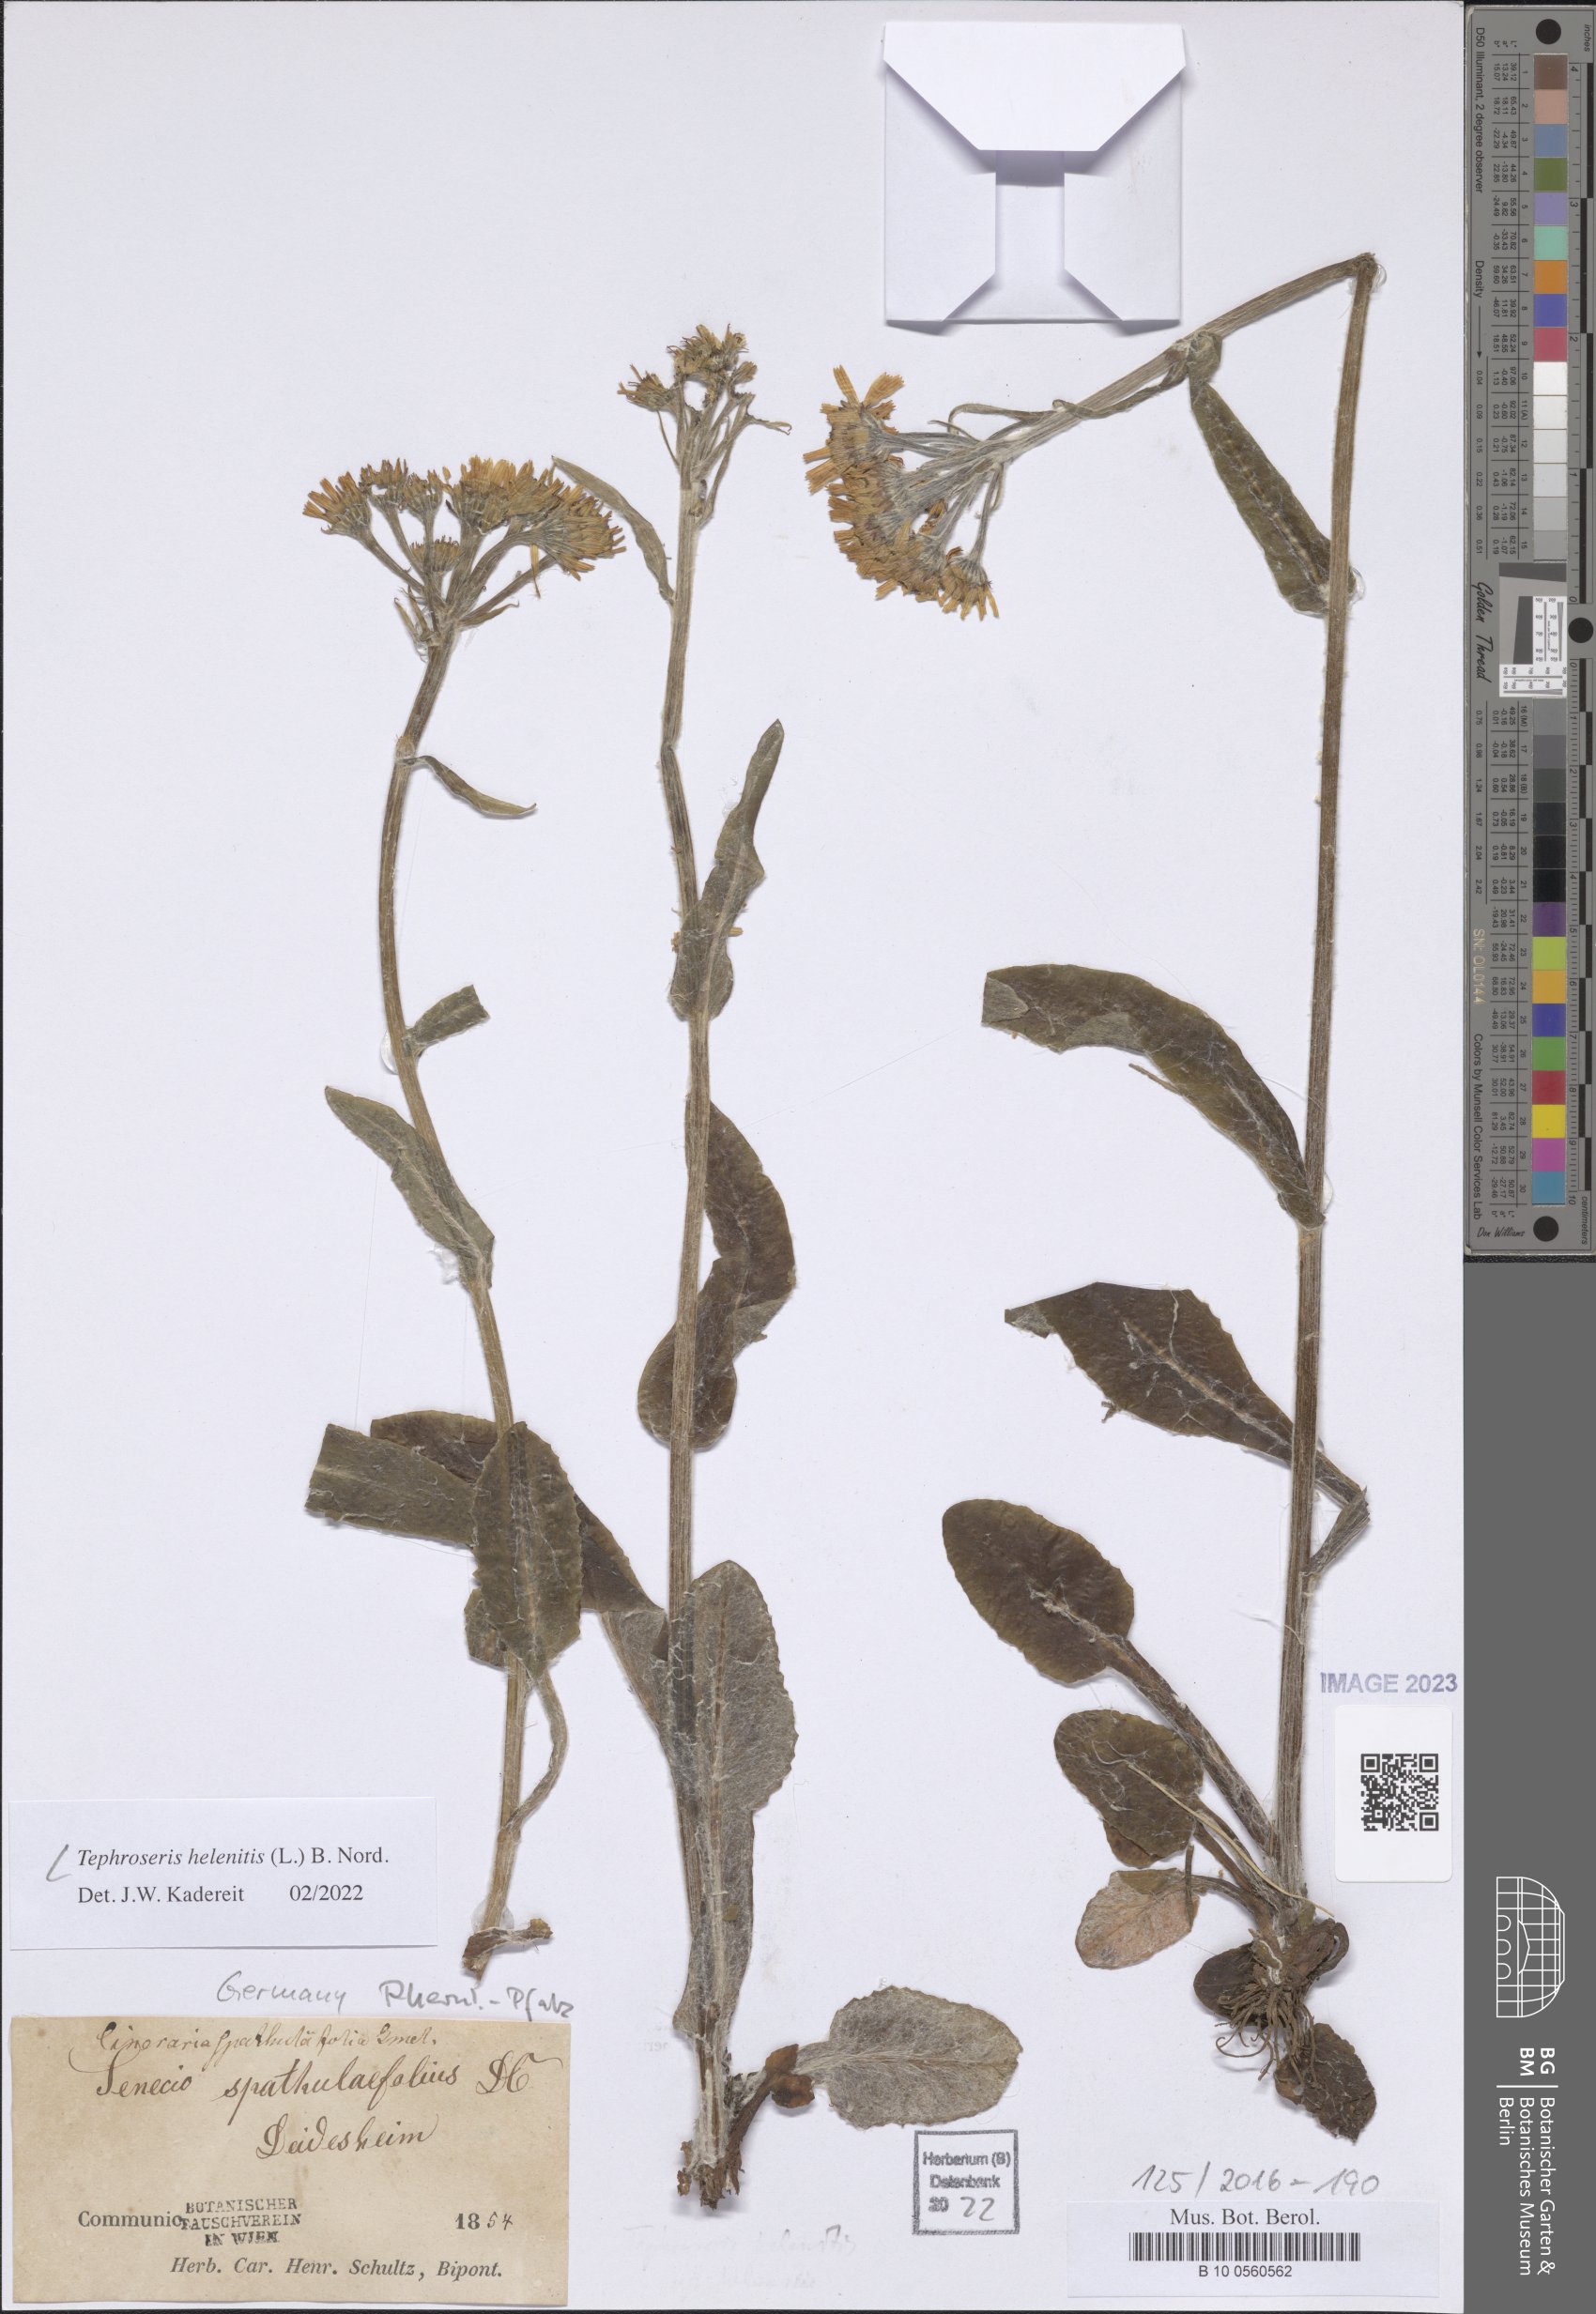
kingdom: Plantae
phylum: Tracheophyta
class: Magnoliopsida
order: Asterales
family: Asteraceae
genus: Tephroseris
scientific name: Tephroseris helenitis
